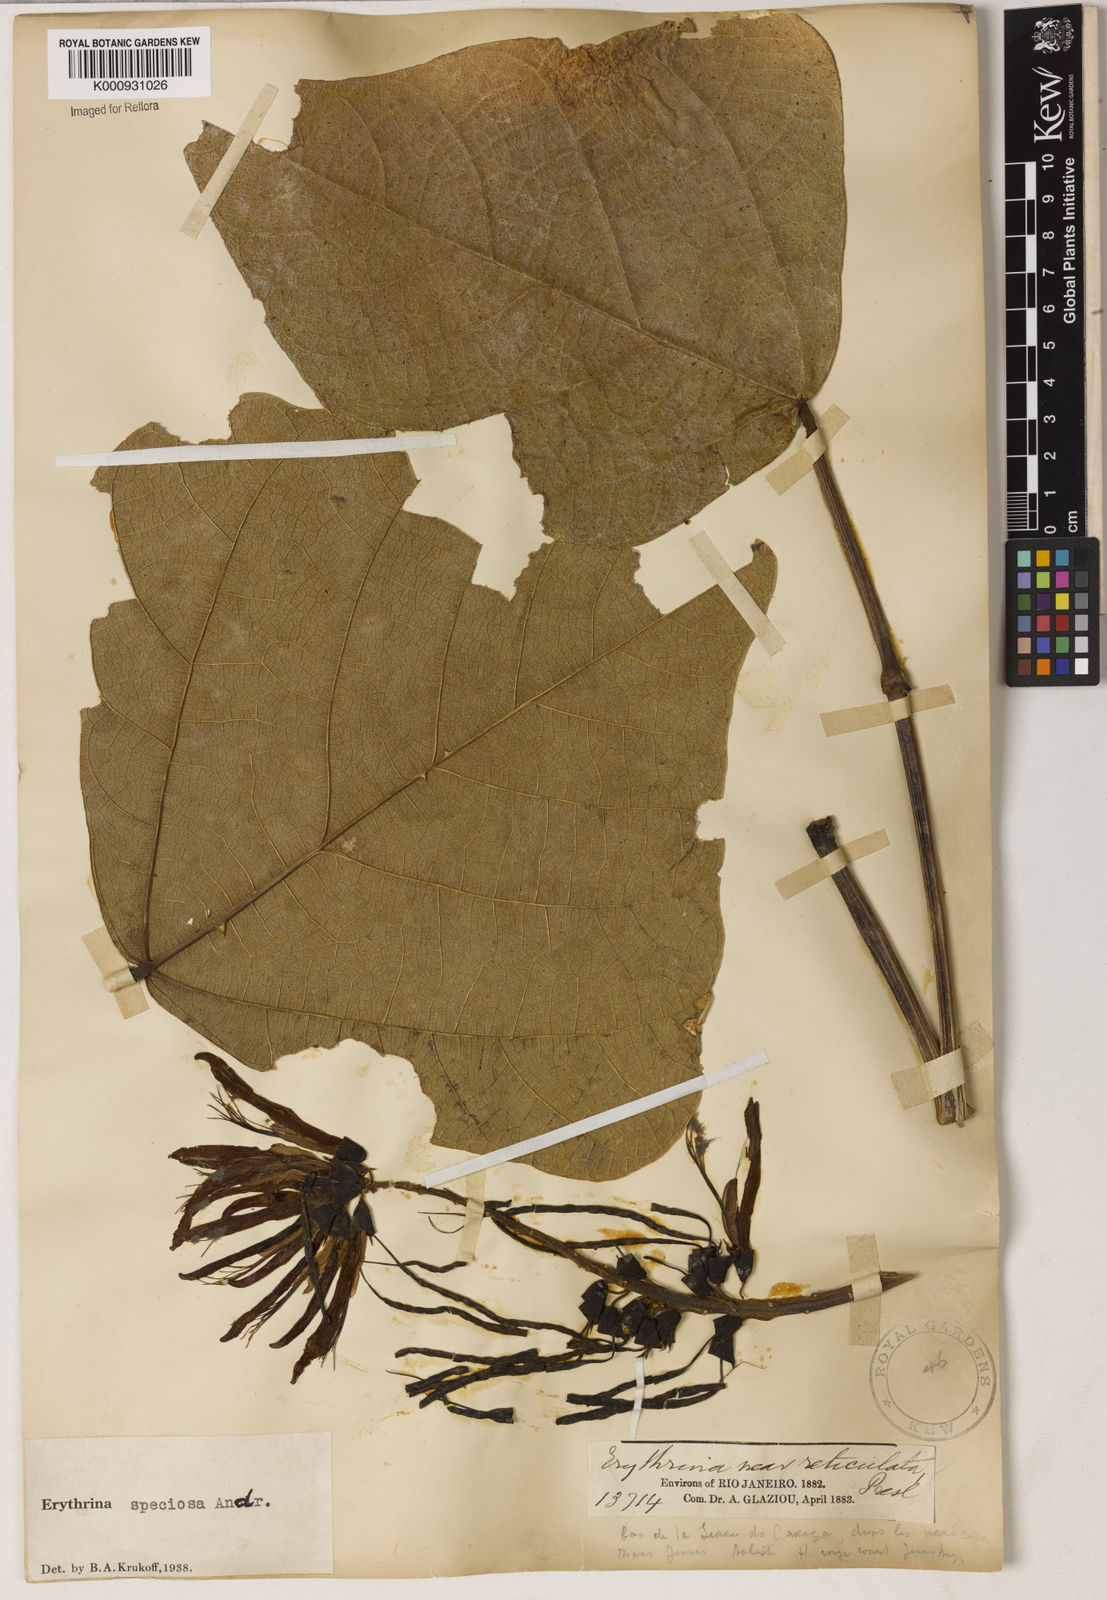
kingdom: Plantae
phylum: Tracheophyta
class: Magnoliopsida
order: Fabales
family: Fabaceae
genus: Erythrina
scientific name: Erythrina speciosa
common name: Coral tree
